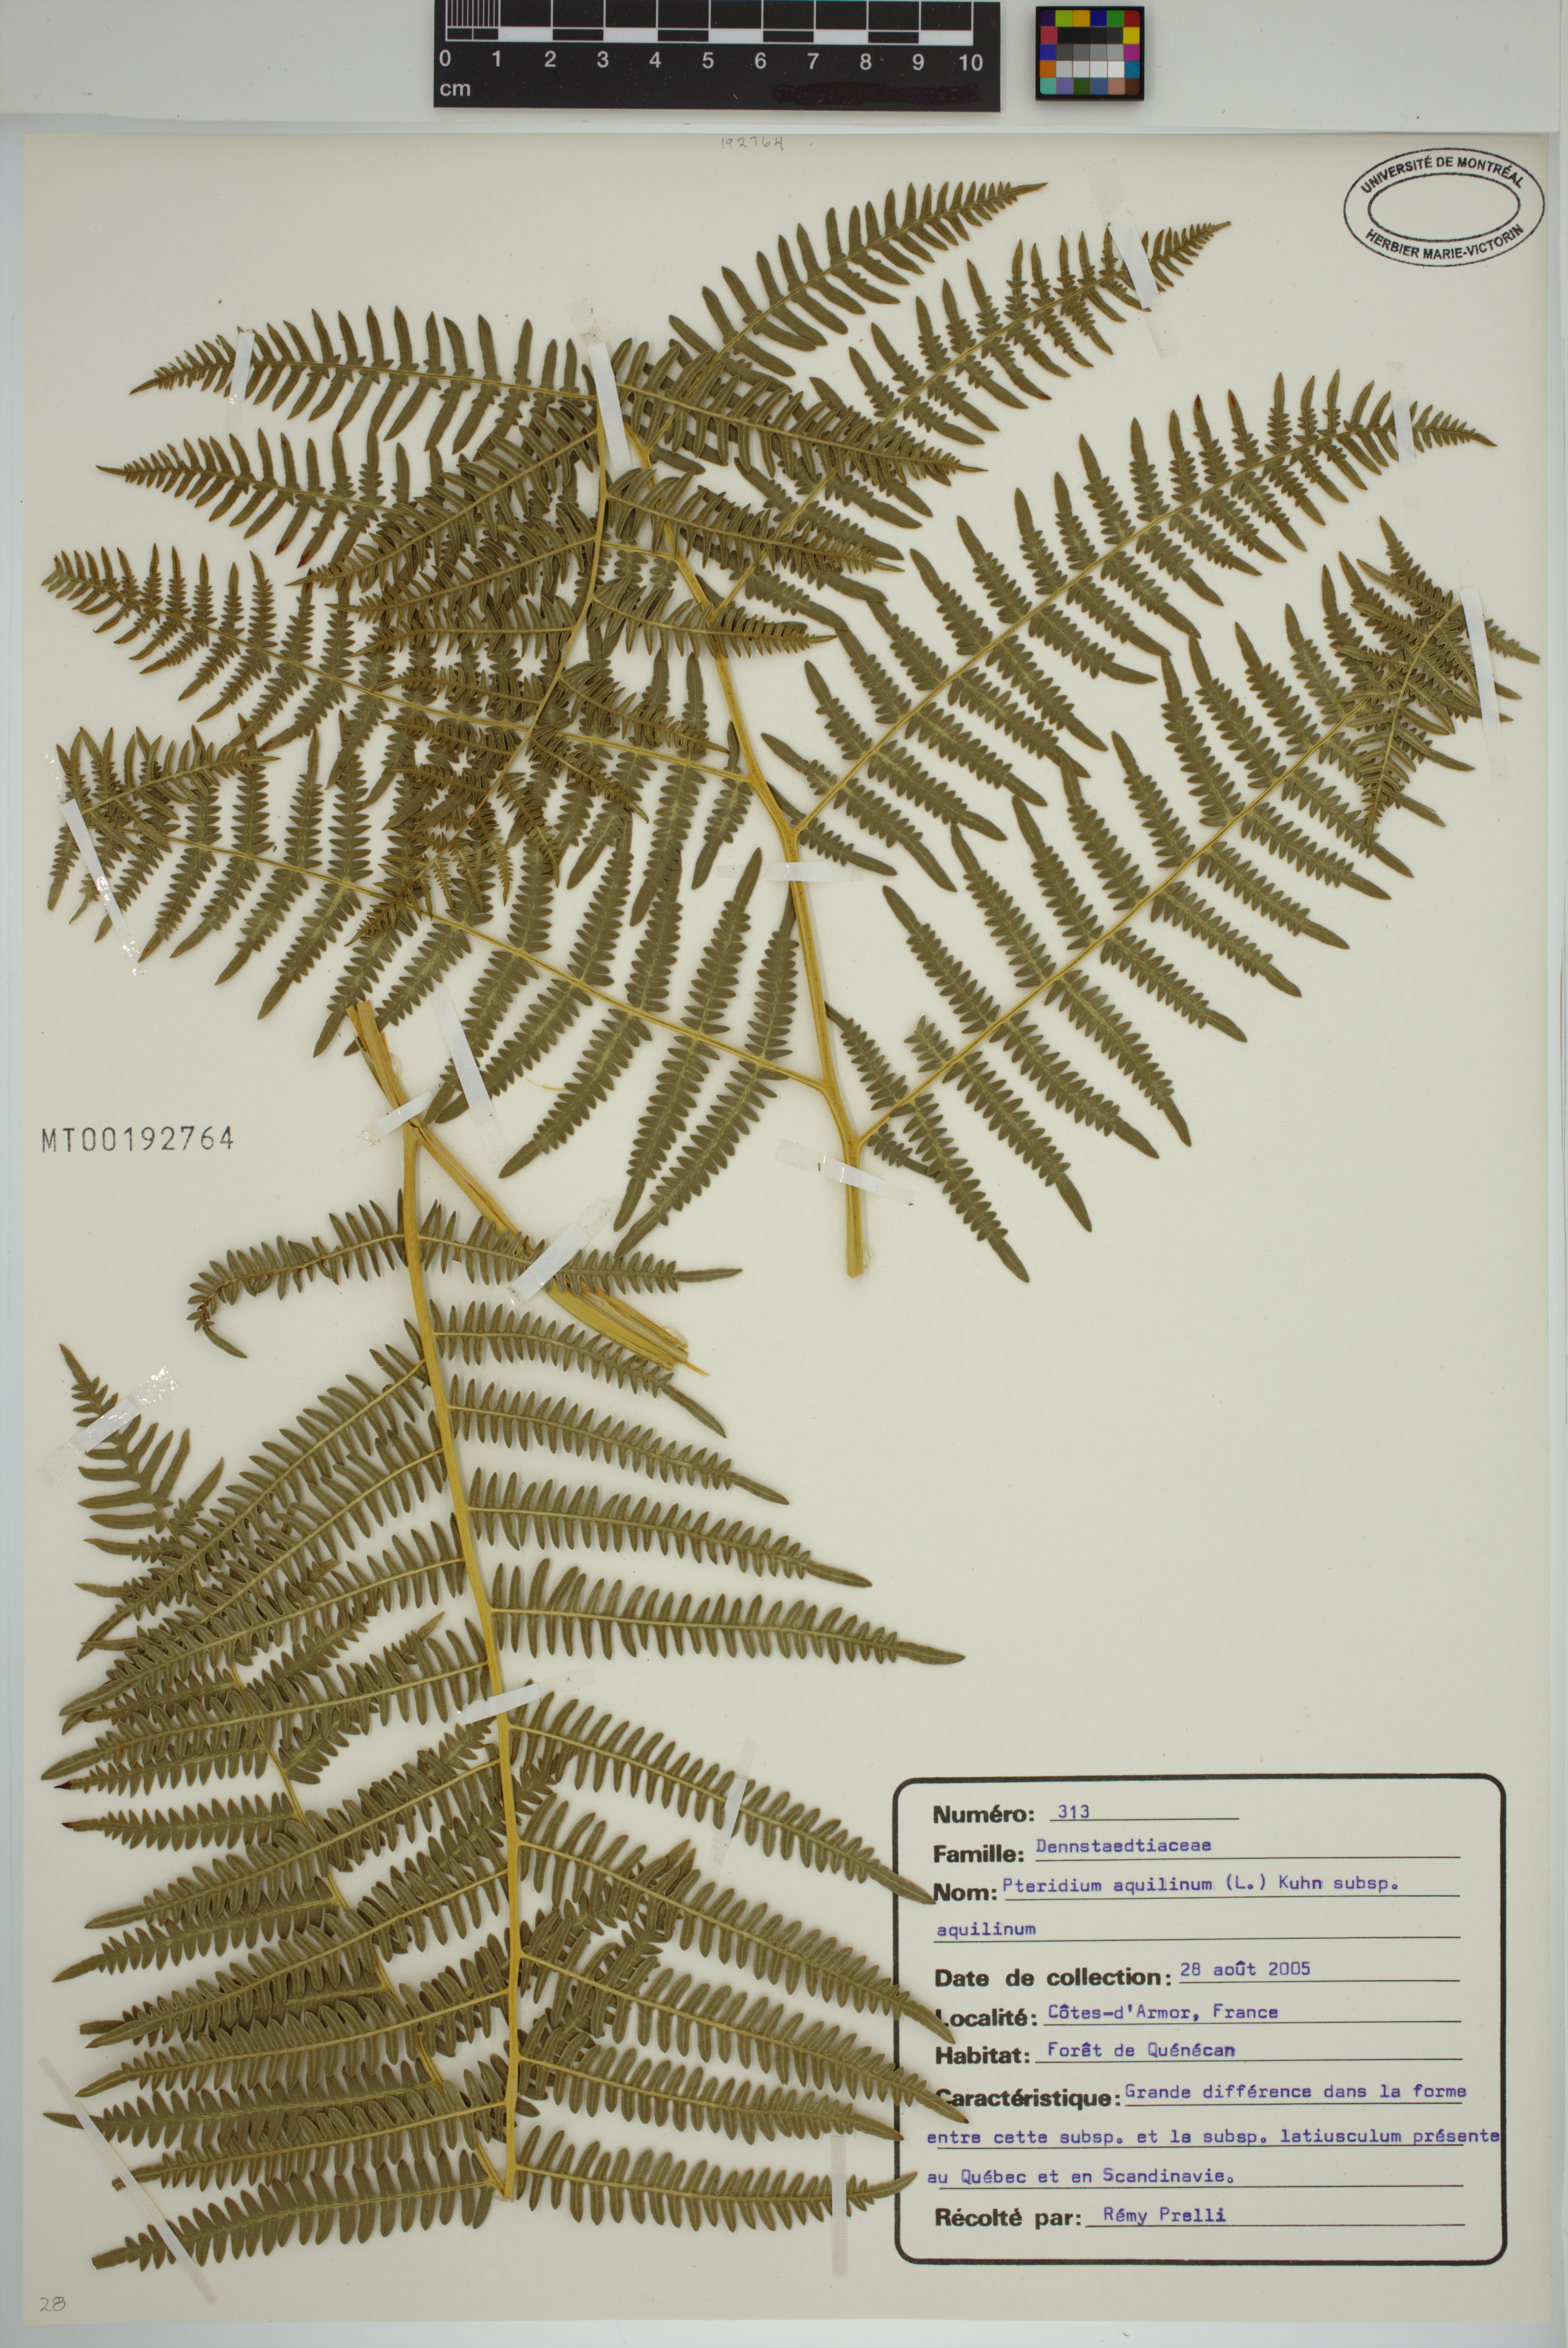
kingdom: Plantae
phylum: Tracheophyta
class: Polypodiopsida
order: Polypodiales
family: Dennstaedtiaceae
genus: Pteridium
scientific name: Pteridium aquilinum
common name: Bracken
